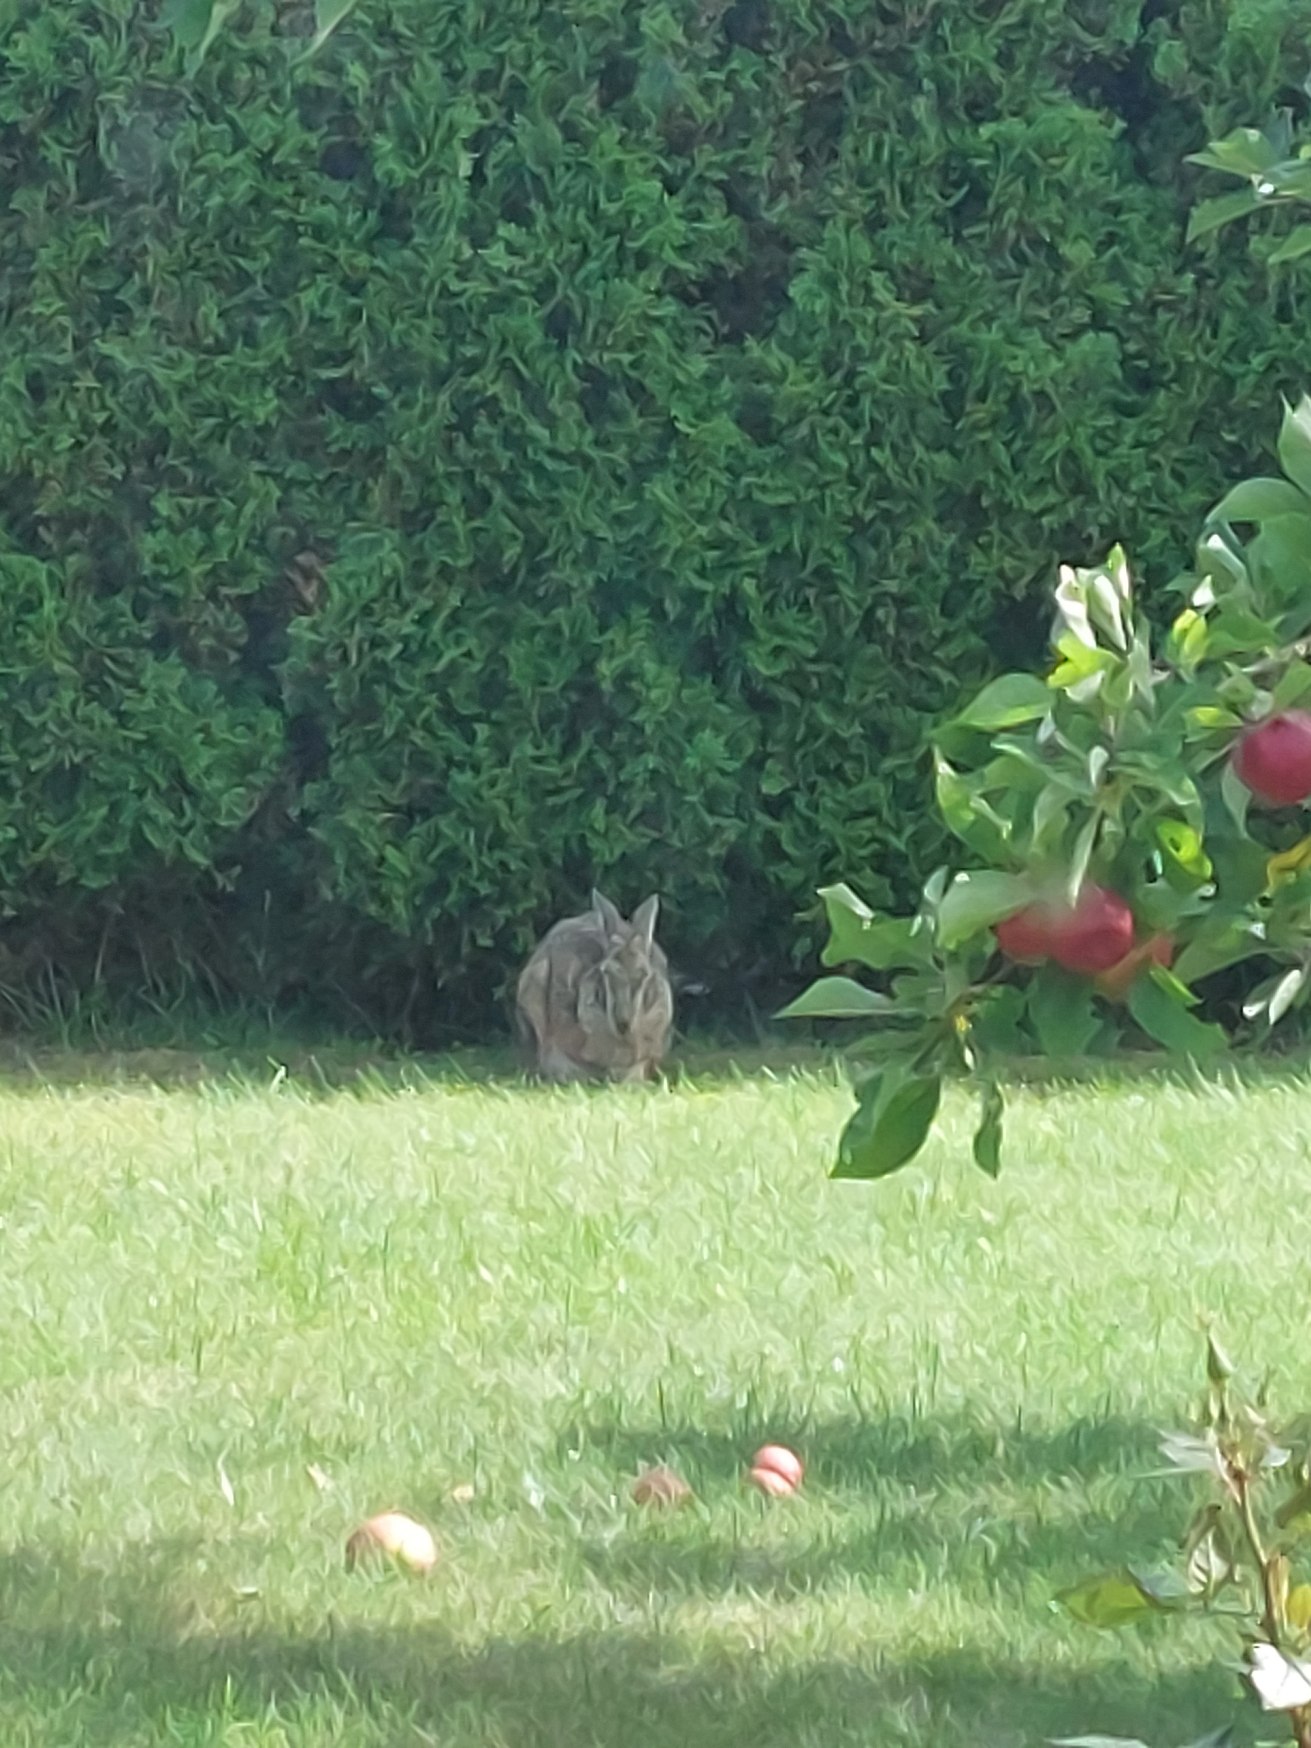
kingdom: Animalia
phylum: Chordata
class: Mammalia
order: Lagomorpha
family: Leporidae
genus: Lepus
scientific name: Lepus europaeus
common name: Hare
